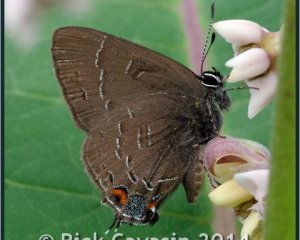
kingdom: Animalia
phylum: Arthropoda
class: Insecta
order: Lepidoptera
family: Lycaenidae
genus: Satyrium
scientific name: Satyrium calanus
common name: Banded Hairstreak
